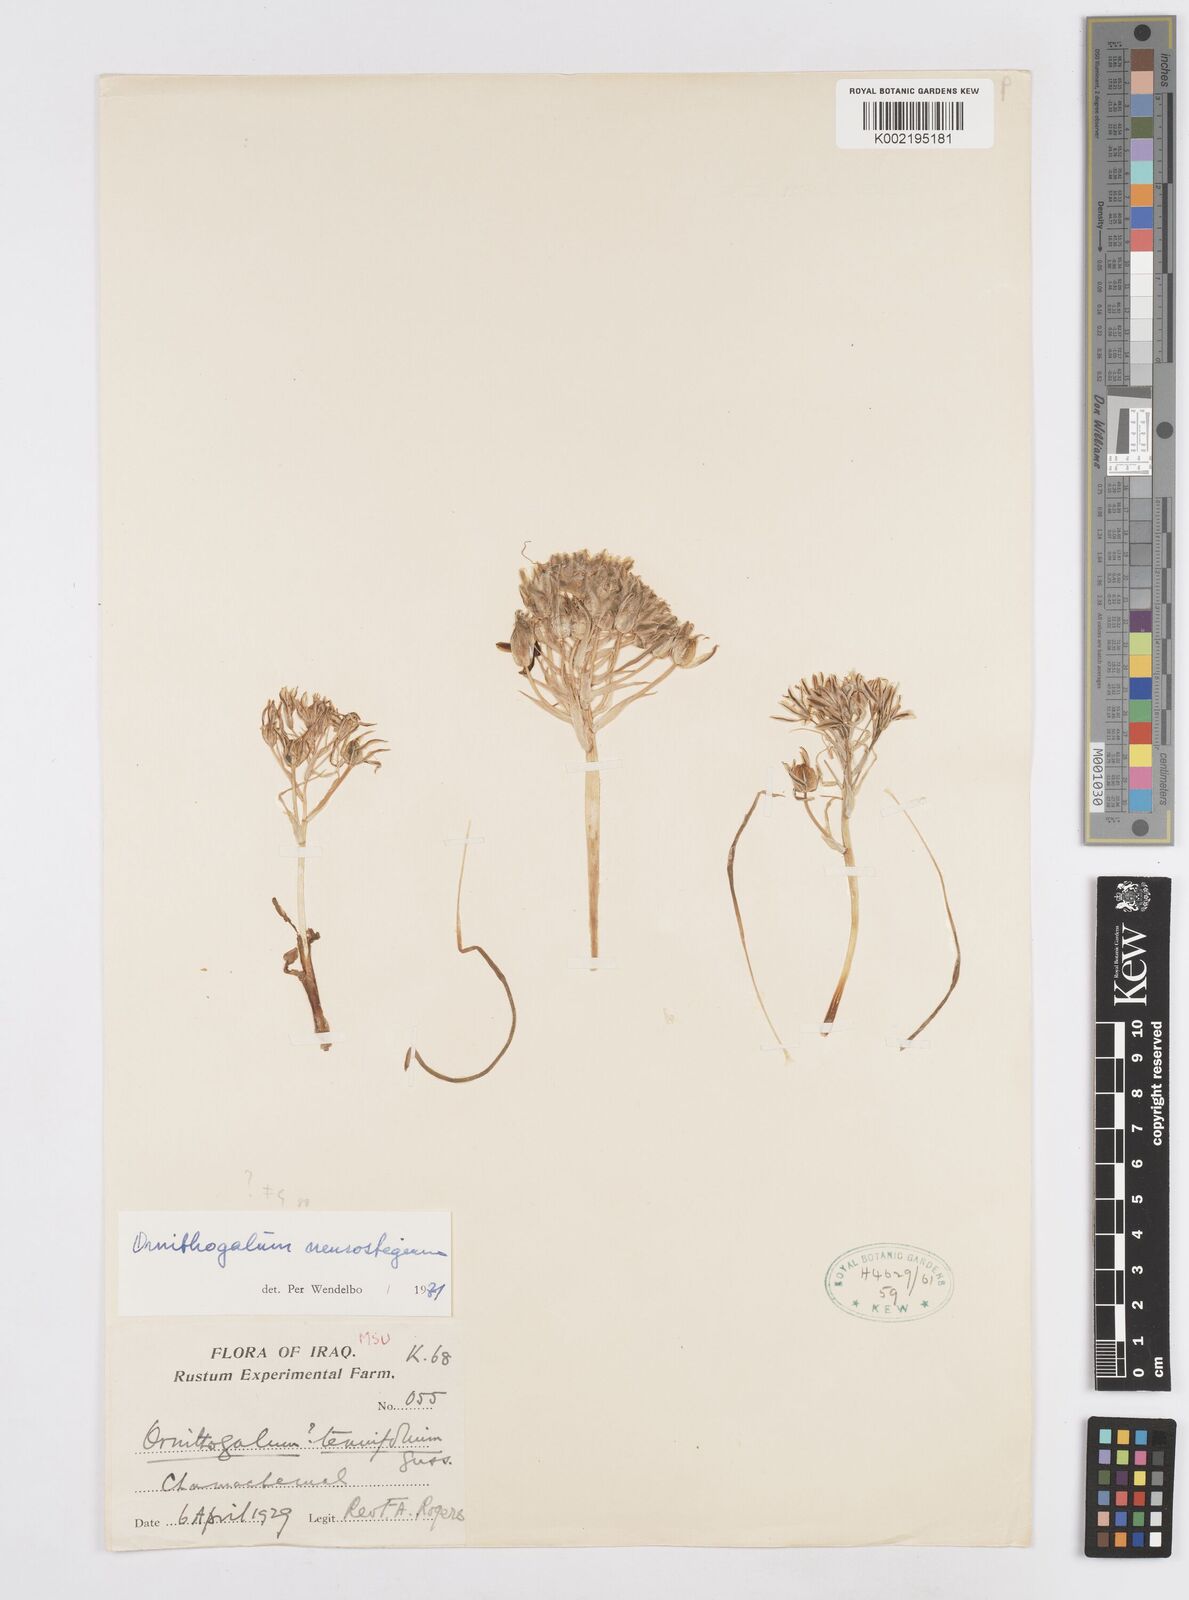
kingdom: Plantae
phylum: Tracheophyta
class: Liliopsida
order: Asparagales
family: Asparagaceae
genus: Ornithogalum
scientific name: Ornithogalum neurostegium
